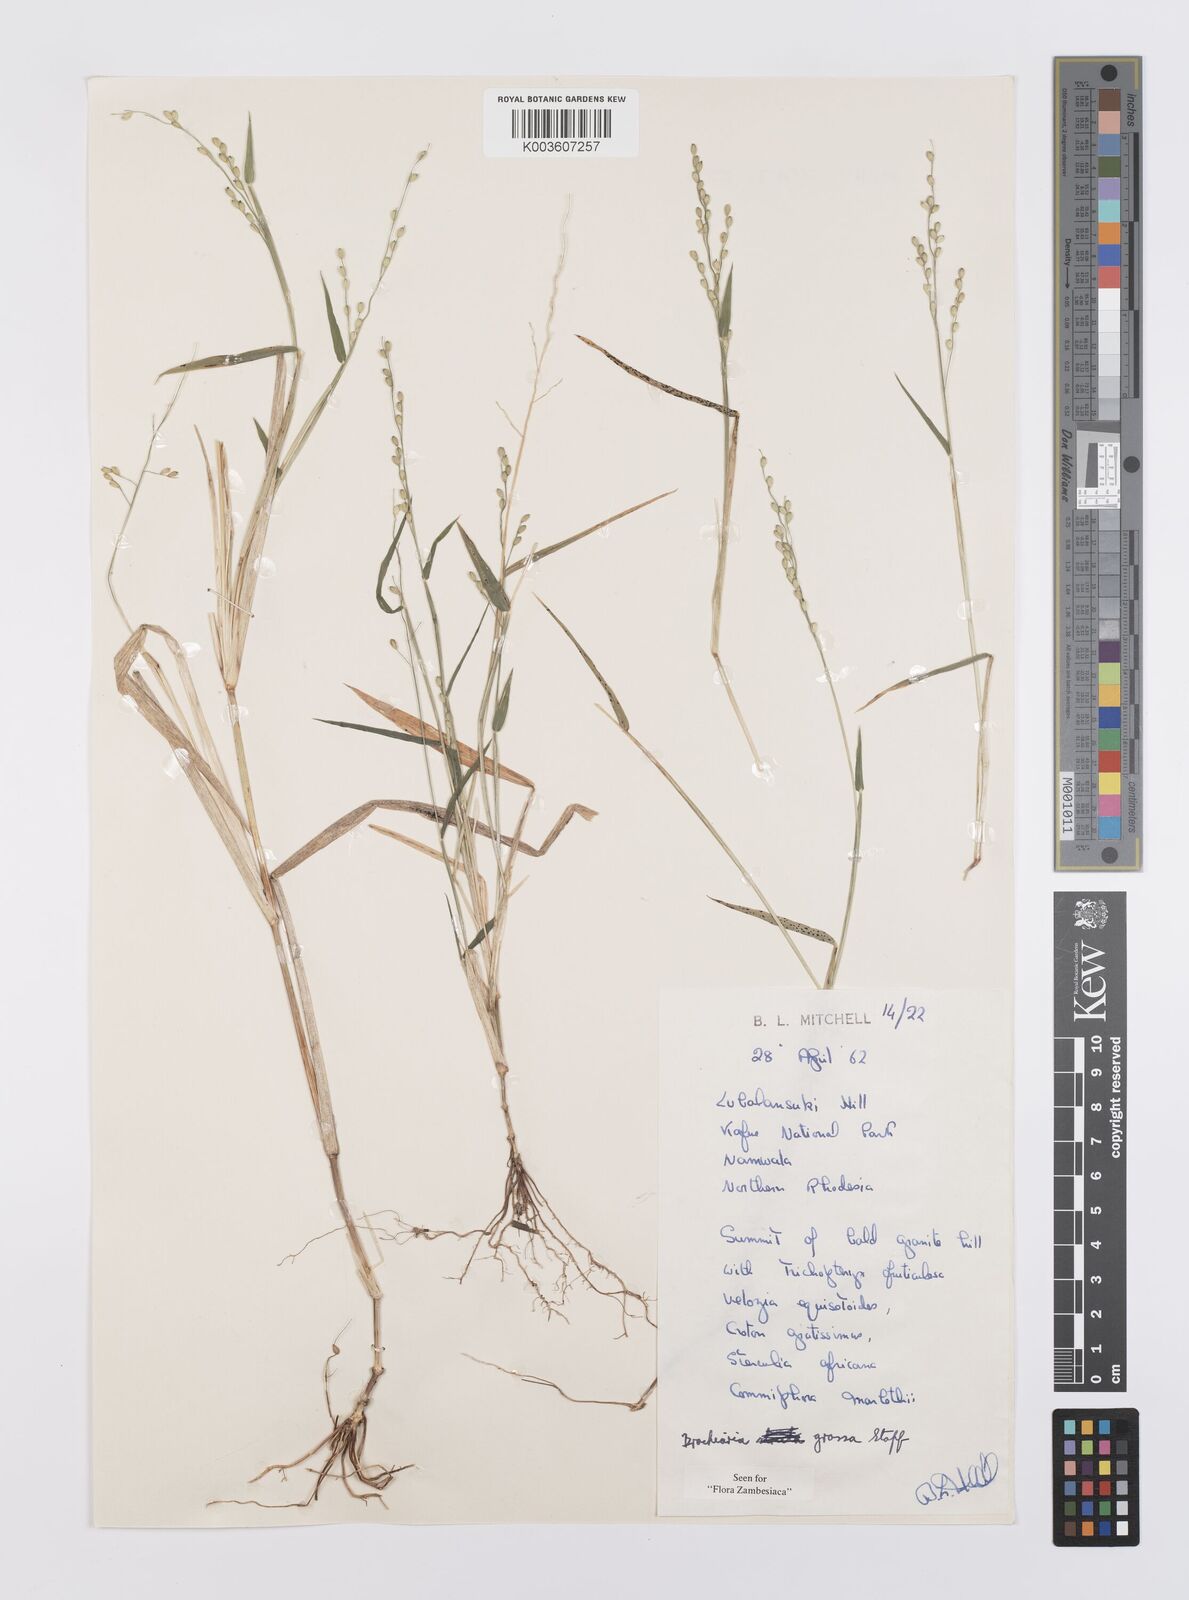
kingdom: Plantae
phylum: Tracheophyta
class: Liliopsida
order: Poales
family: Poaceae
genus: Urochloa
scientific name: Urochloa Brachiaria grossa
